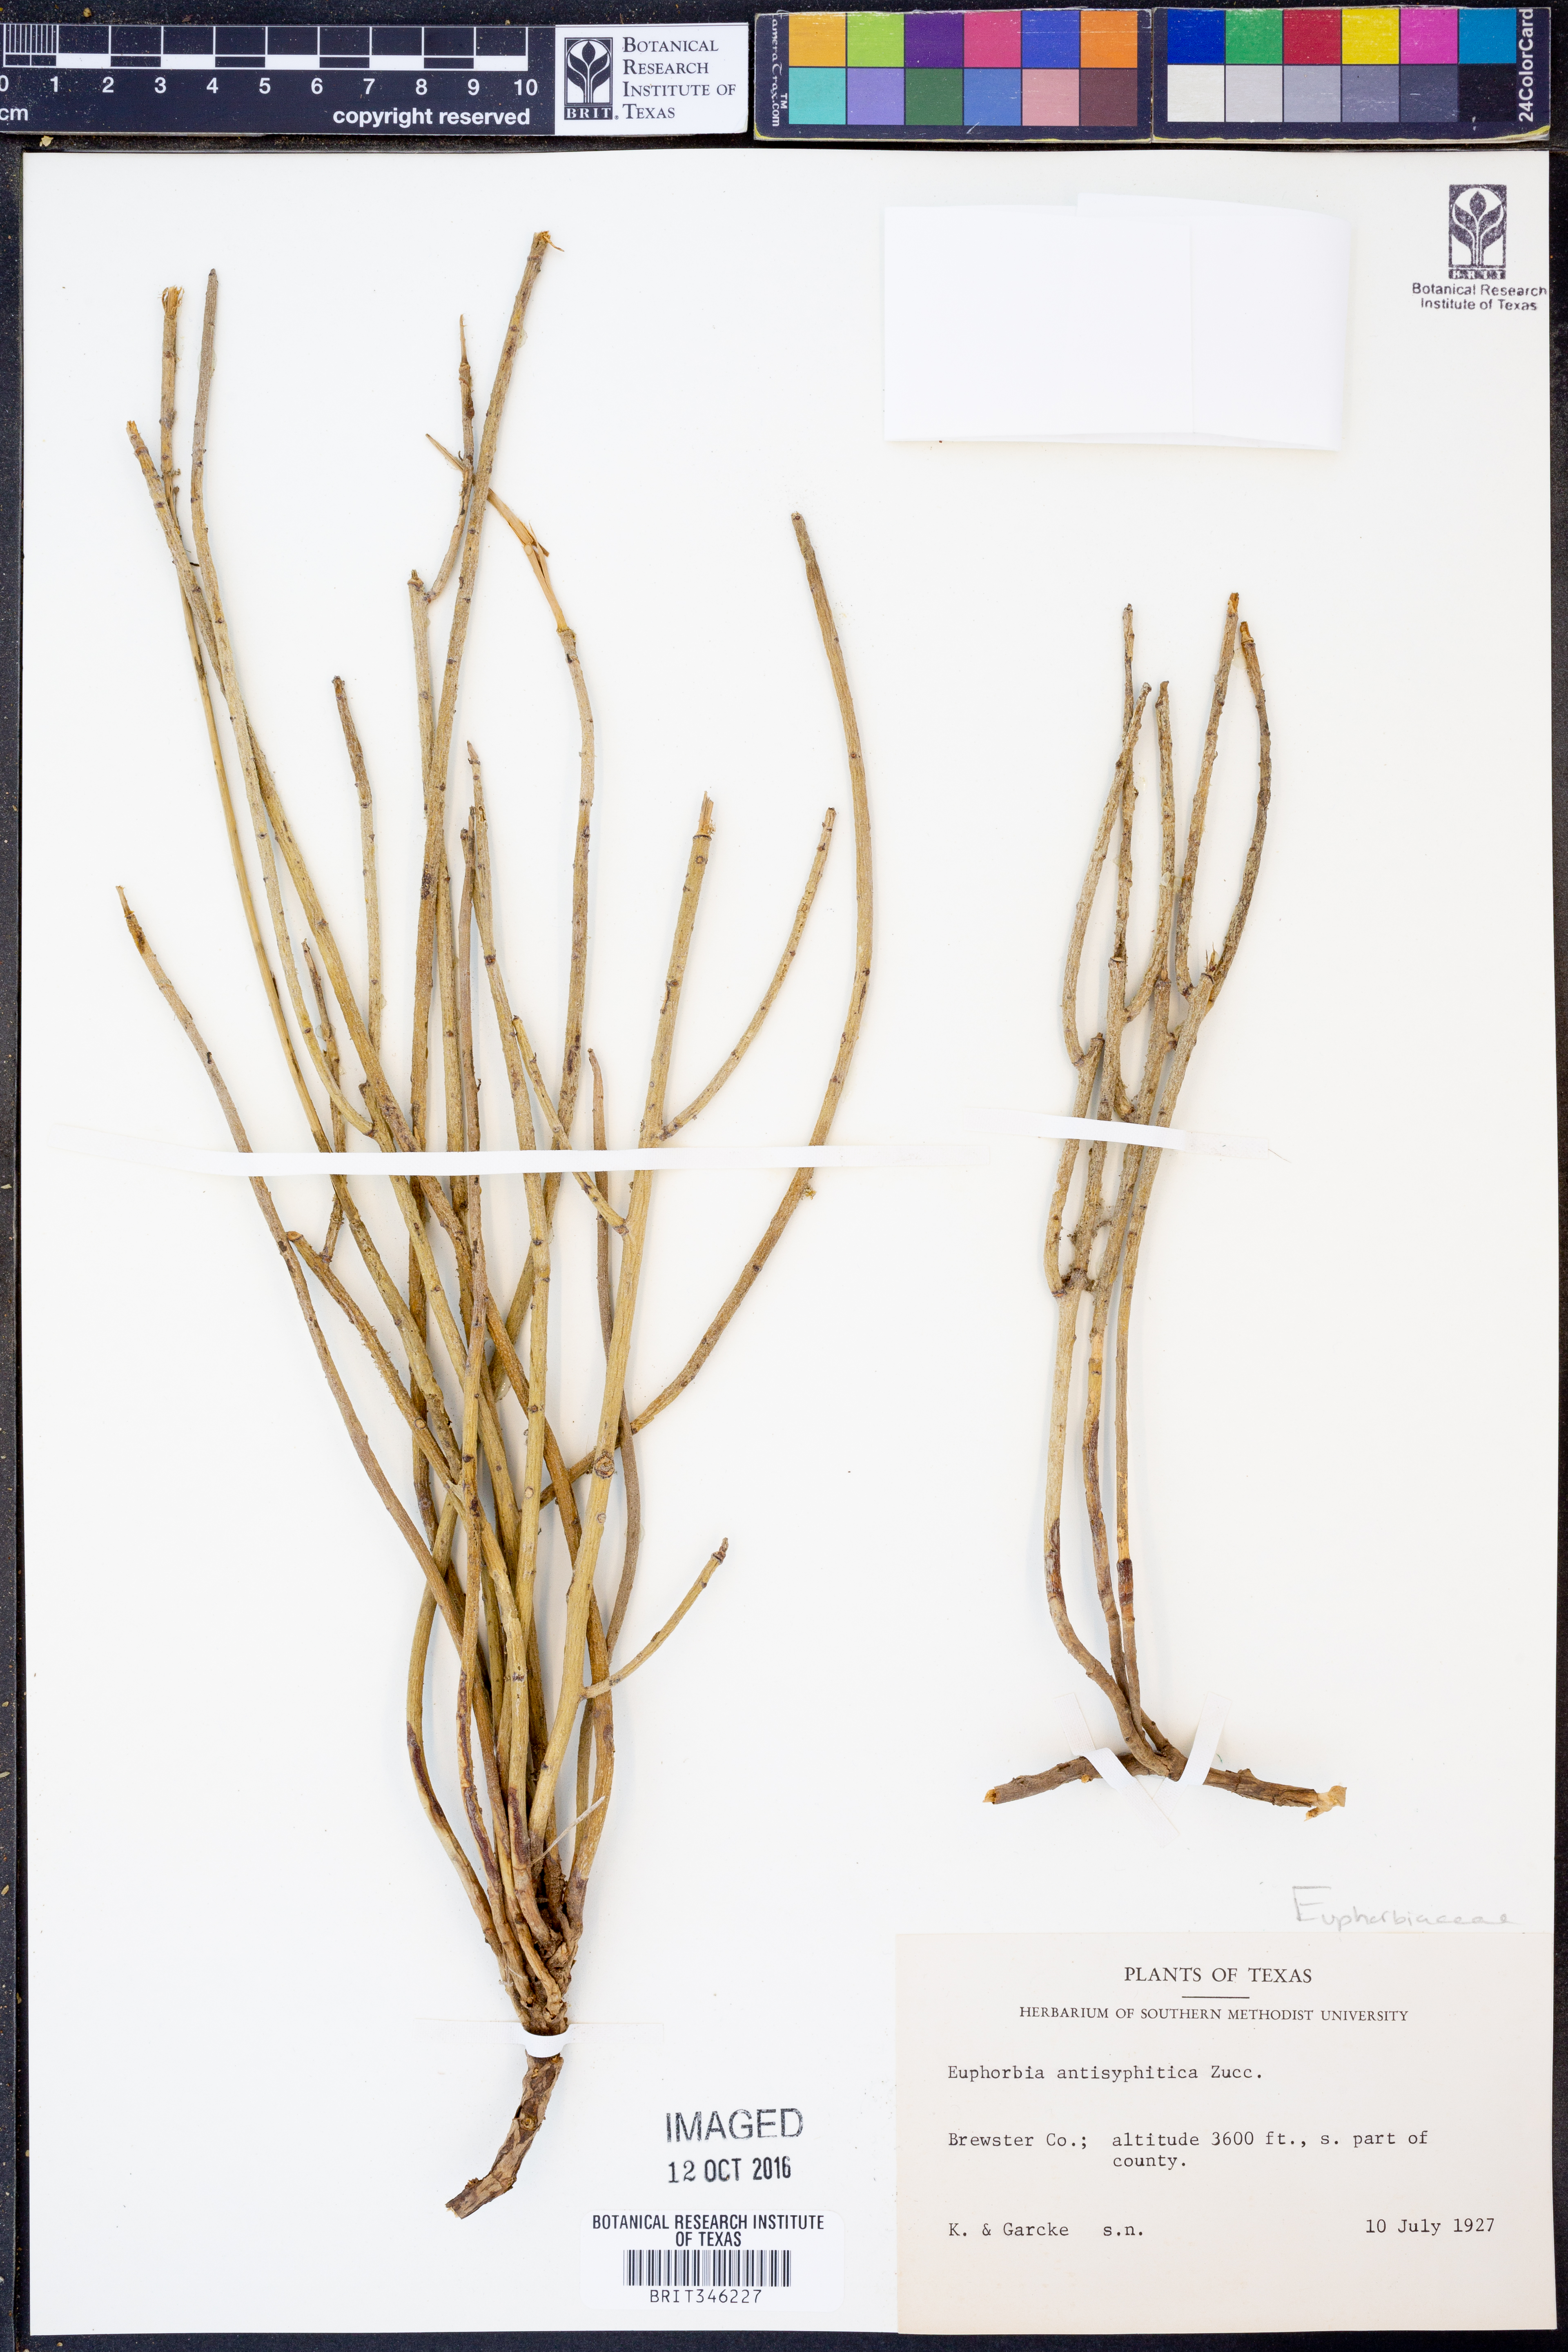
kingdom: Plantae
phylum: Tracheophyta
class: Magnoliopsida
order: Malpighiales
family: Euphorbiaceae
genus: Euphorbia
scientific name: Euphorbia antisyphilitica
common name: Candelilla
